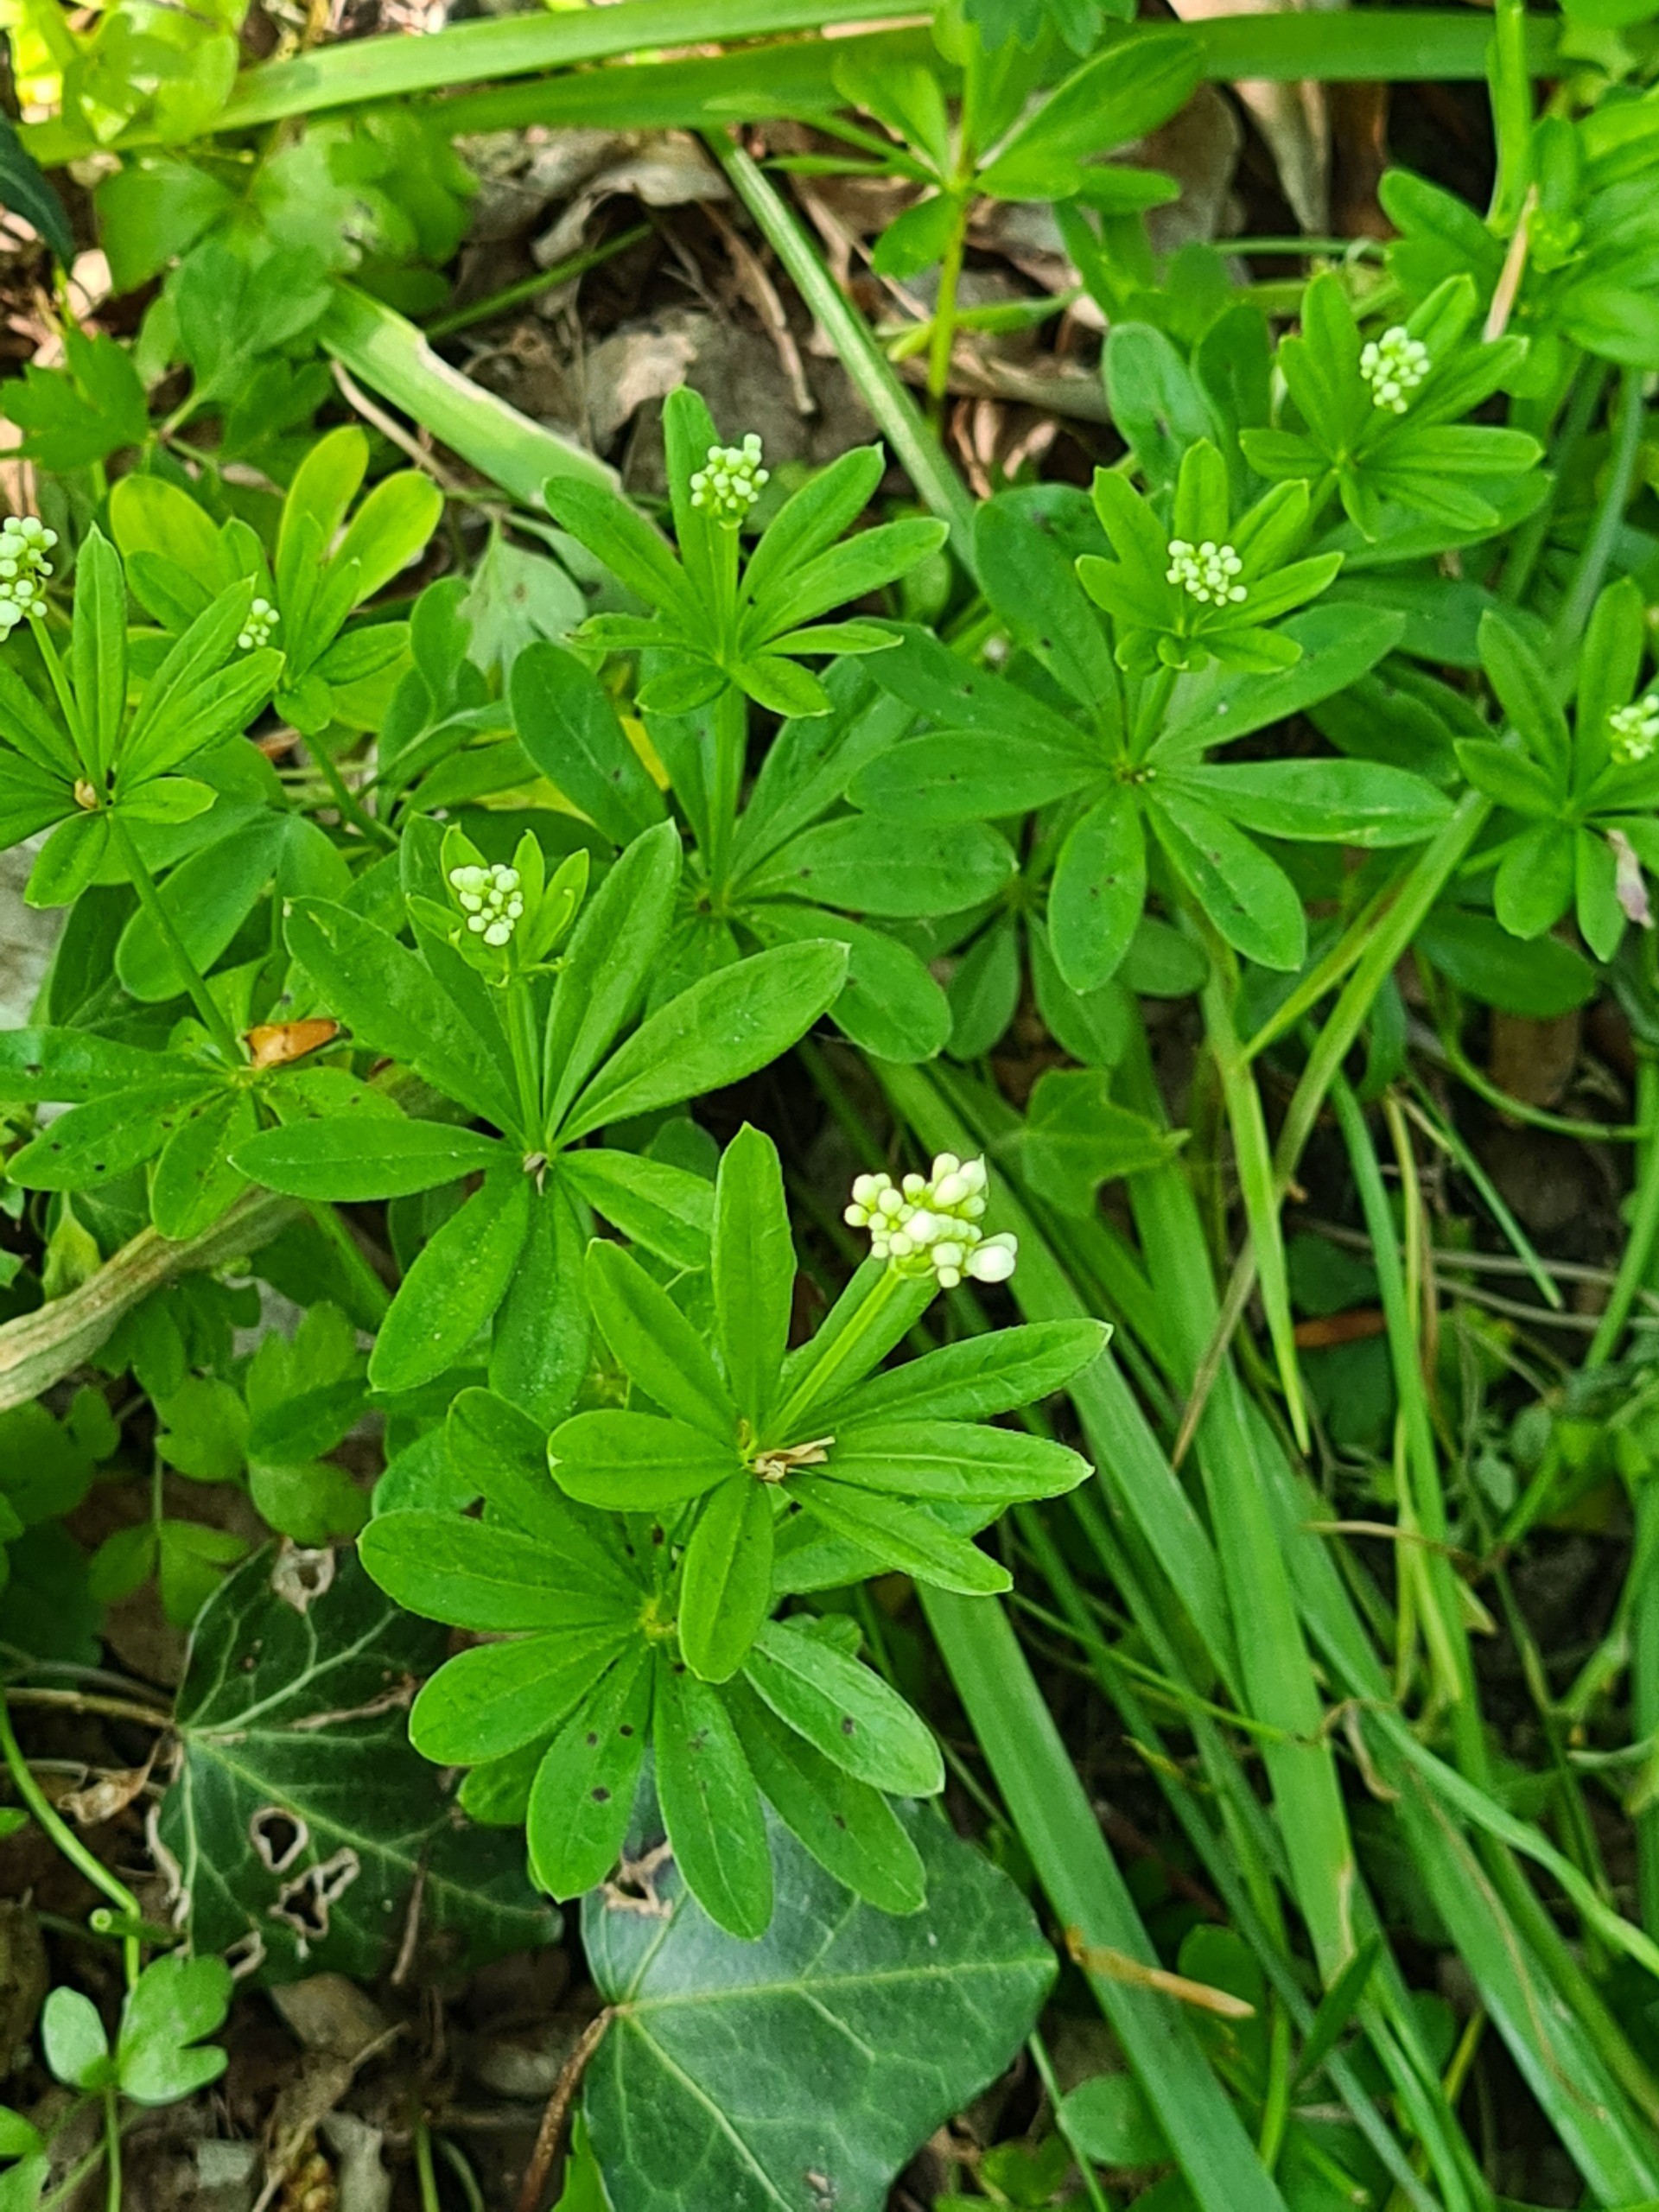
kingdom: Plantae
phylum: Tracheophyta
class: Magnoliopsida
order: Gentianales
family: Rubiaceae
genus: Galium
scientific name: Galium odoratum
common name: Skovmærke
